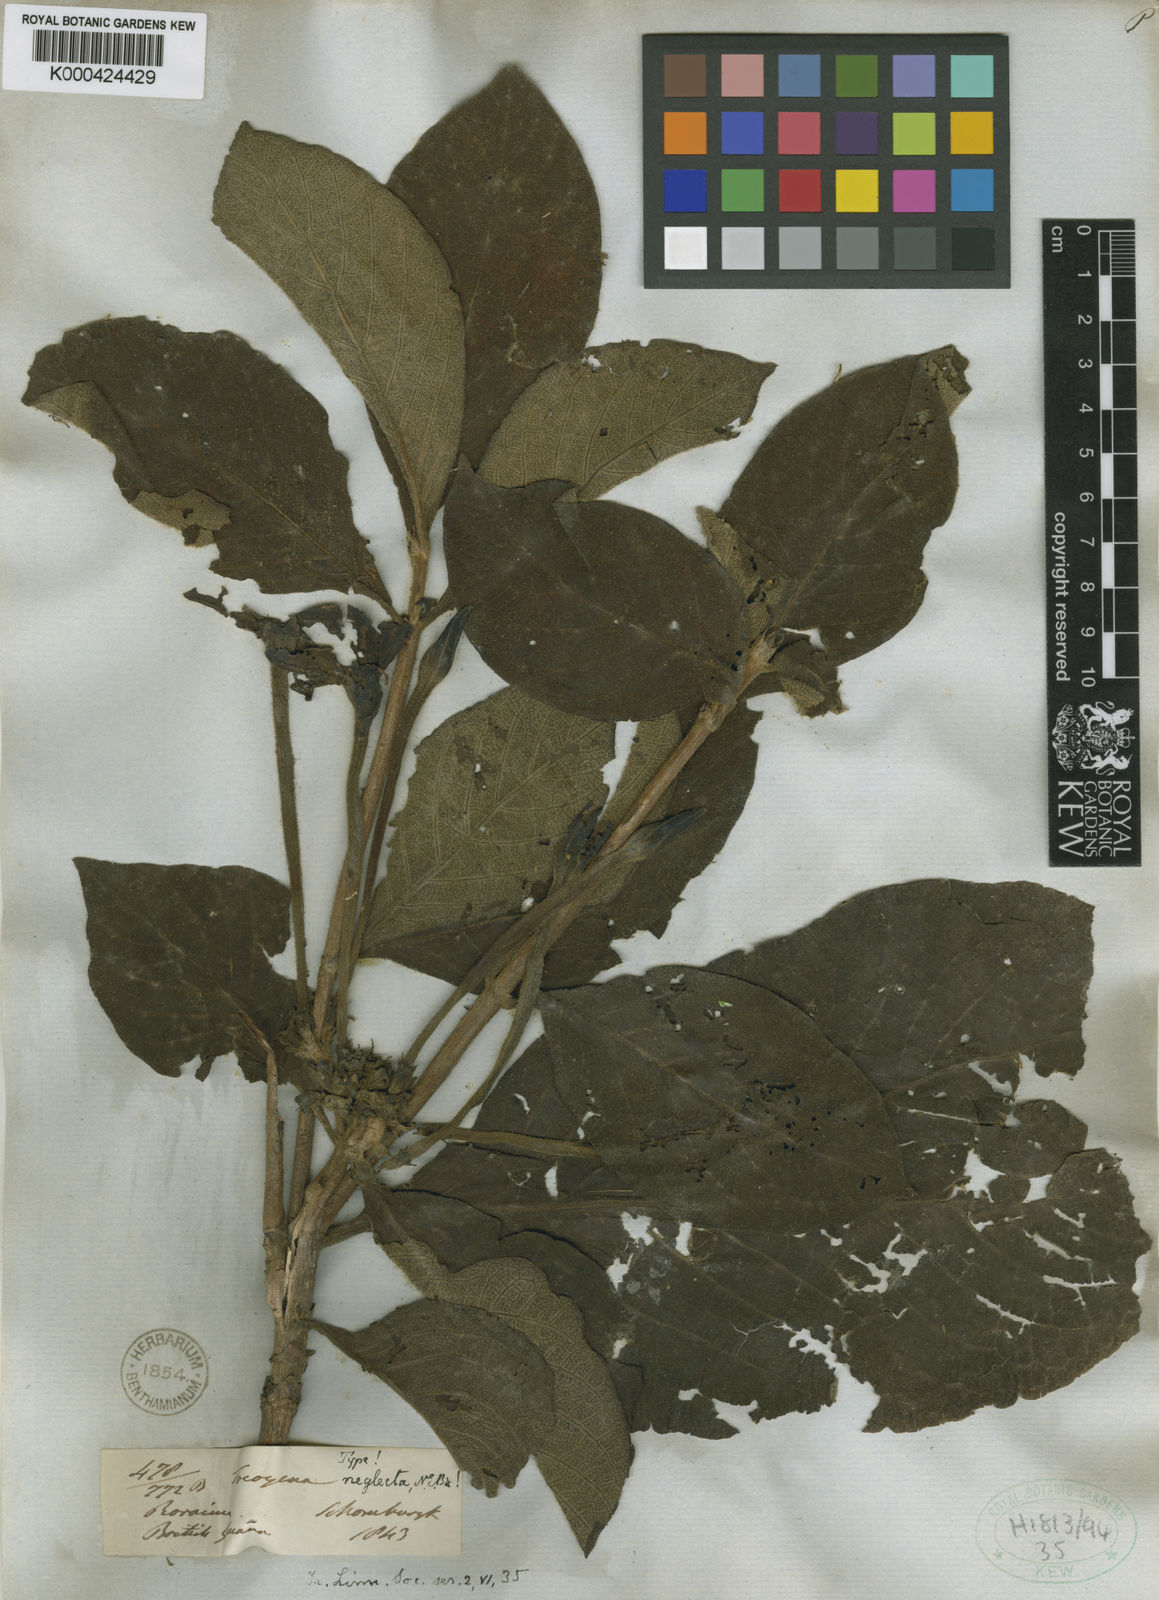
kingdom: Plantae
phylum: Tracheophyta
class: Magnoliopsida
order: Gentianales
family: Rubiaceae
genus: Tocoyena
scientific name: Tocoyena neglecta
